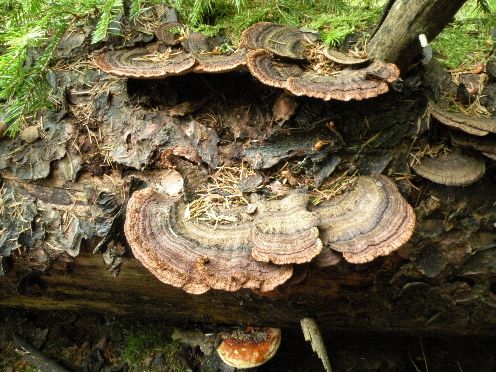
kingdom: Fungi
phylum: Basidiomycota
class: Agaricomycetes
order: Gloeophyllales
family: Gloeophyllaceae
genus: Gloeophyllum
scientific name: Gloeophyllum sepiarium
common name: fyrre-korkhat
